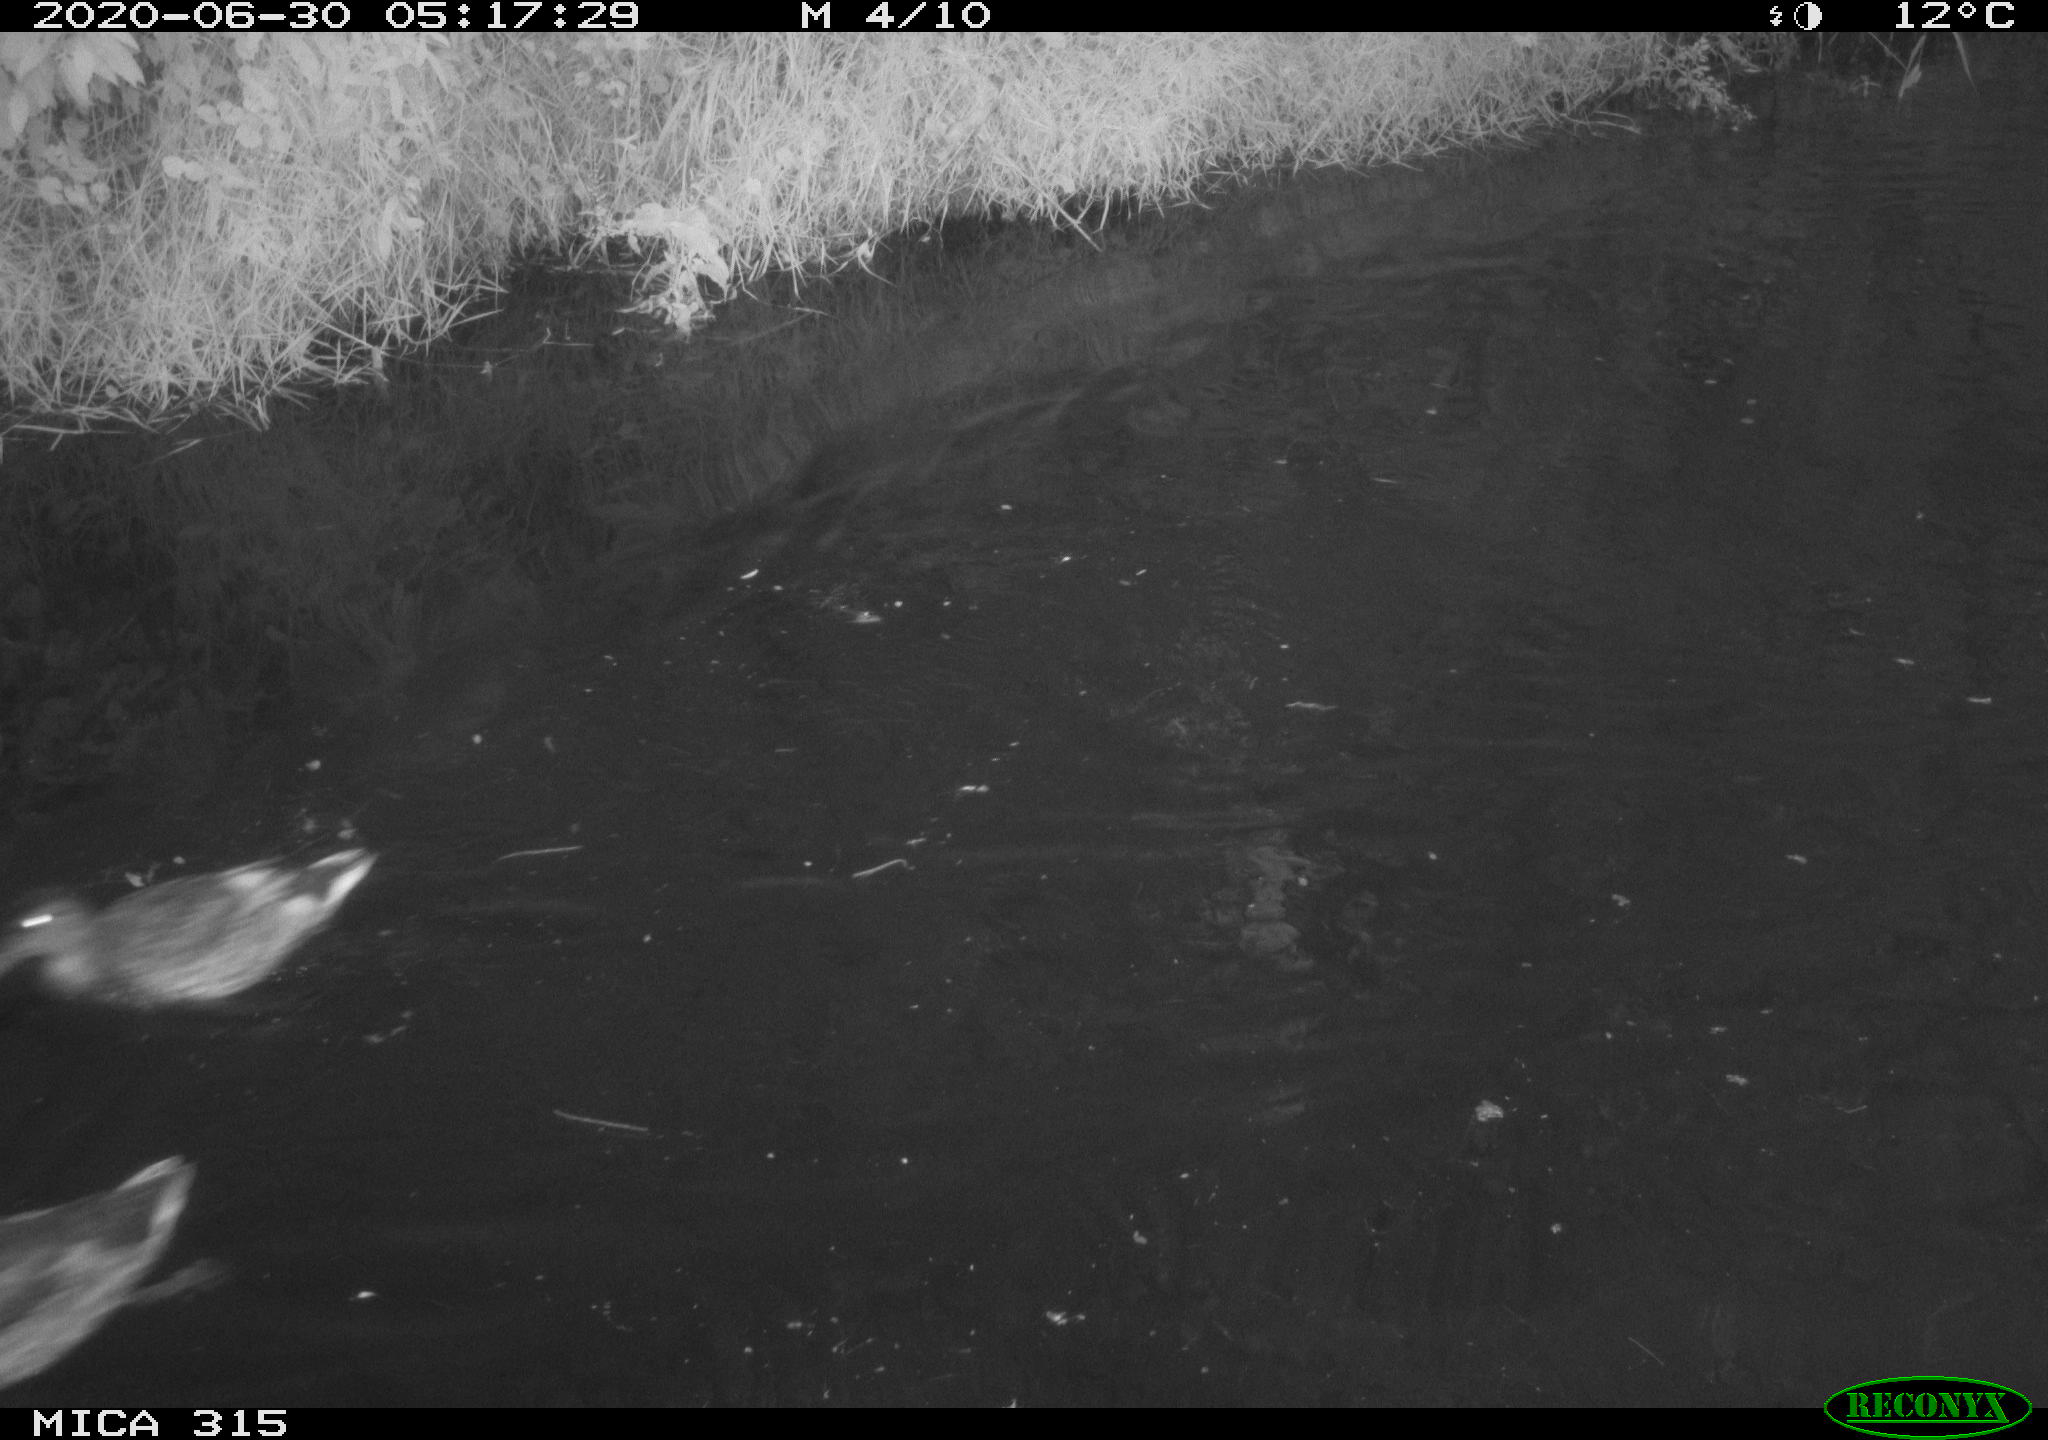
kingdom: Animalia
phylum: Chordata
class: Aves
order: Anseriformes
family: Anatidae
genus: Anas
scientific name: Anas platyrhynchos
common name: Mallard
